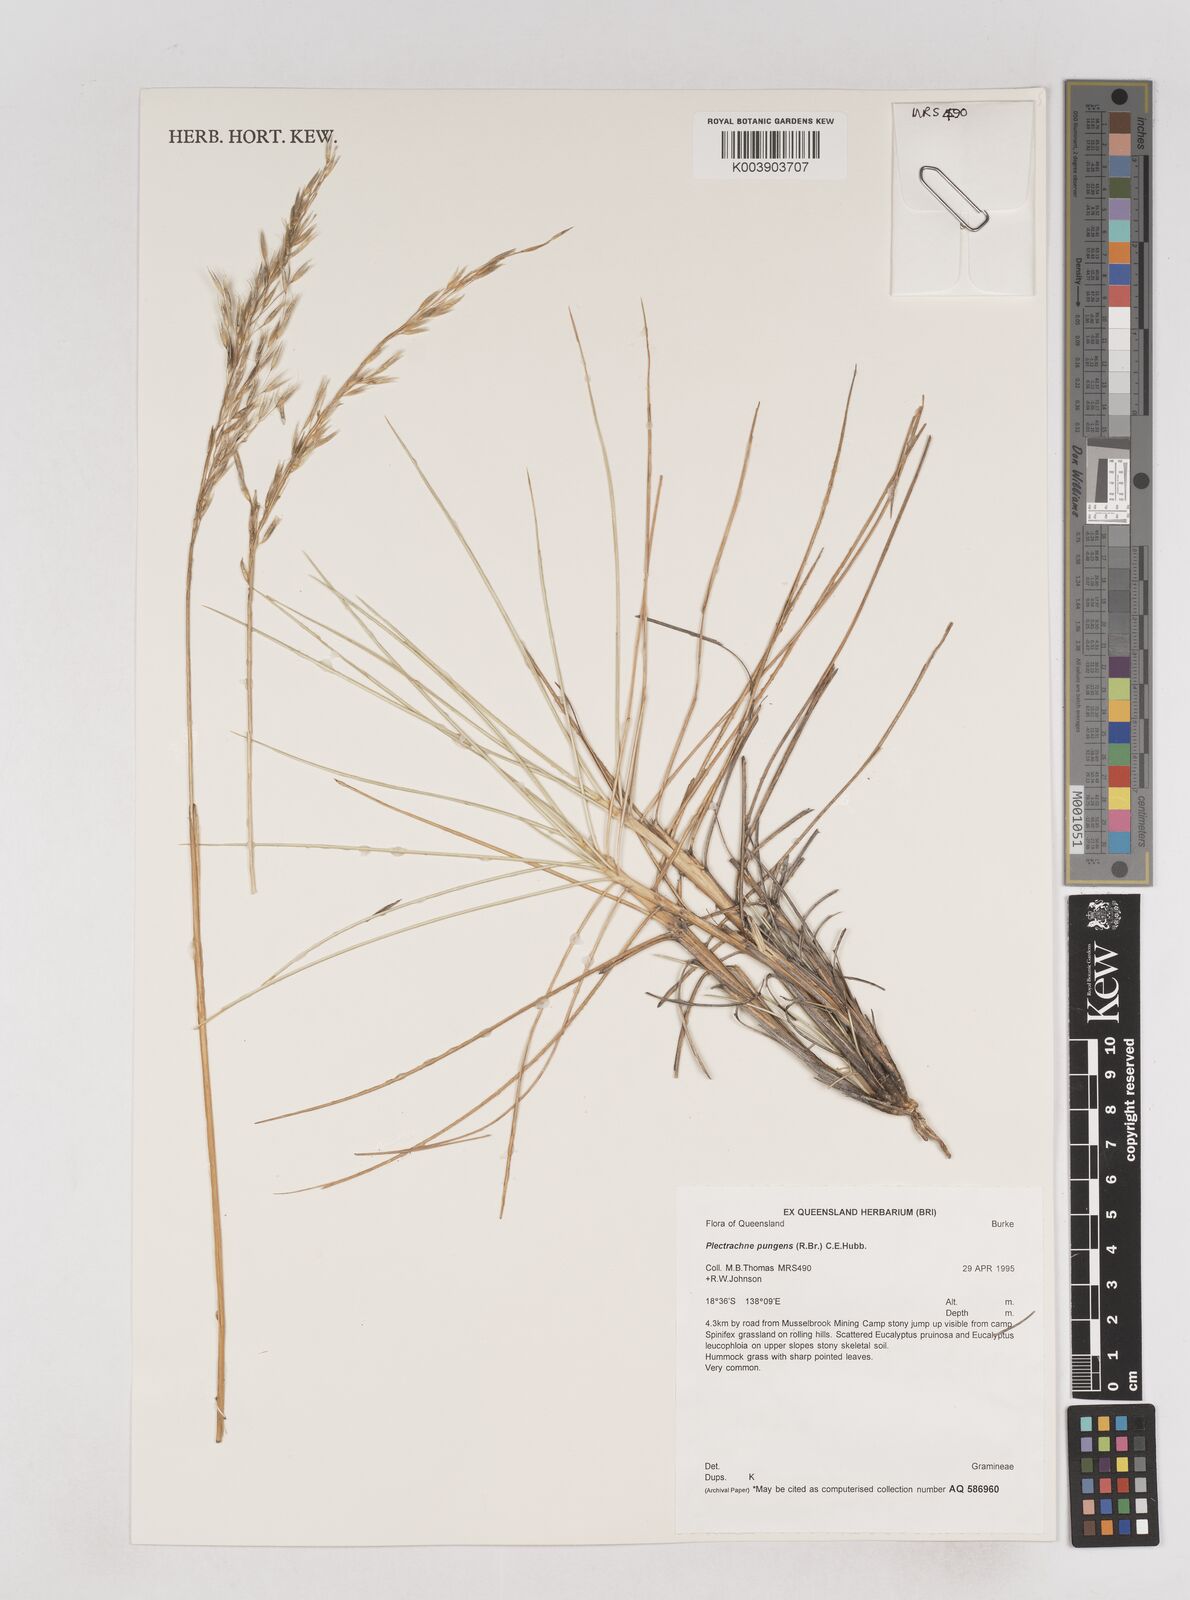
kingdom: Plantae
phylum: Tracheophyta
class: Liliopsida
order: Poales
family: Poaceae
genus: Triodia
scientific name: Triodia bitextura
